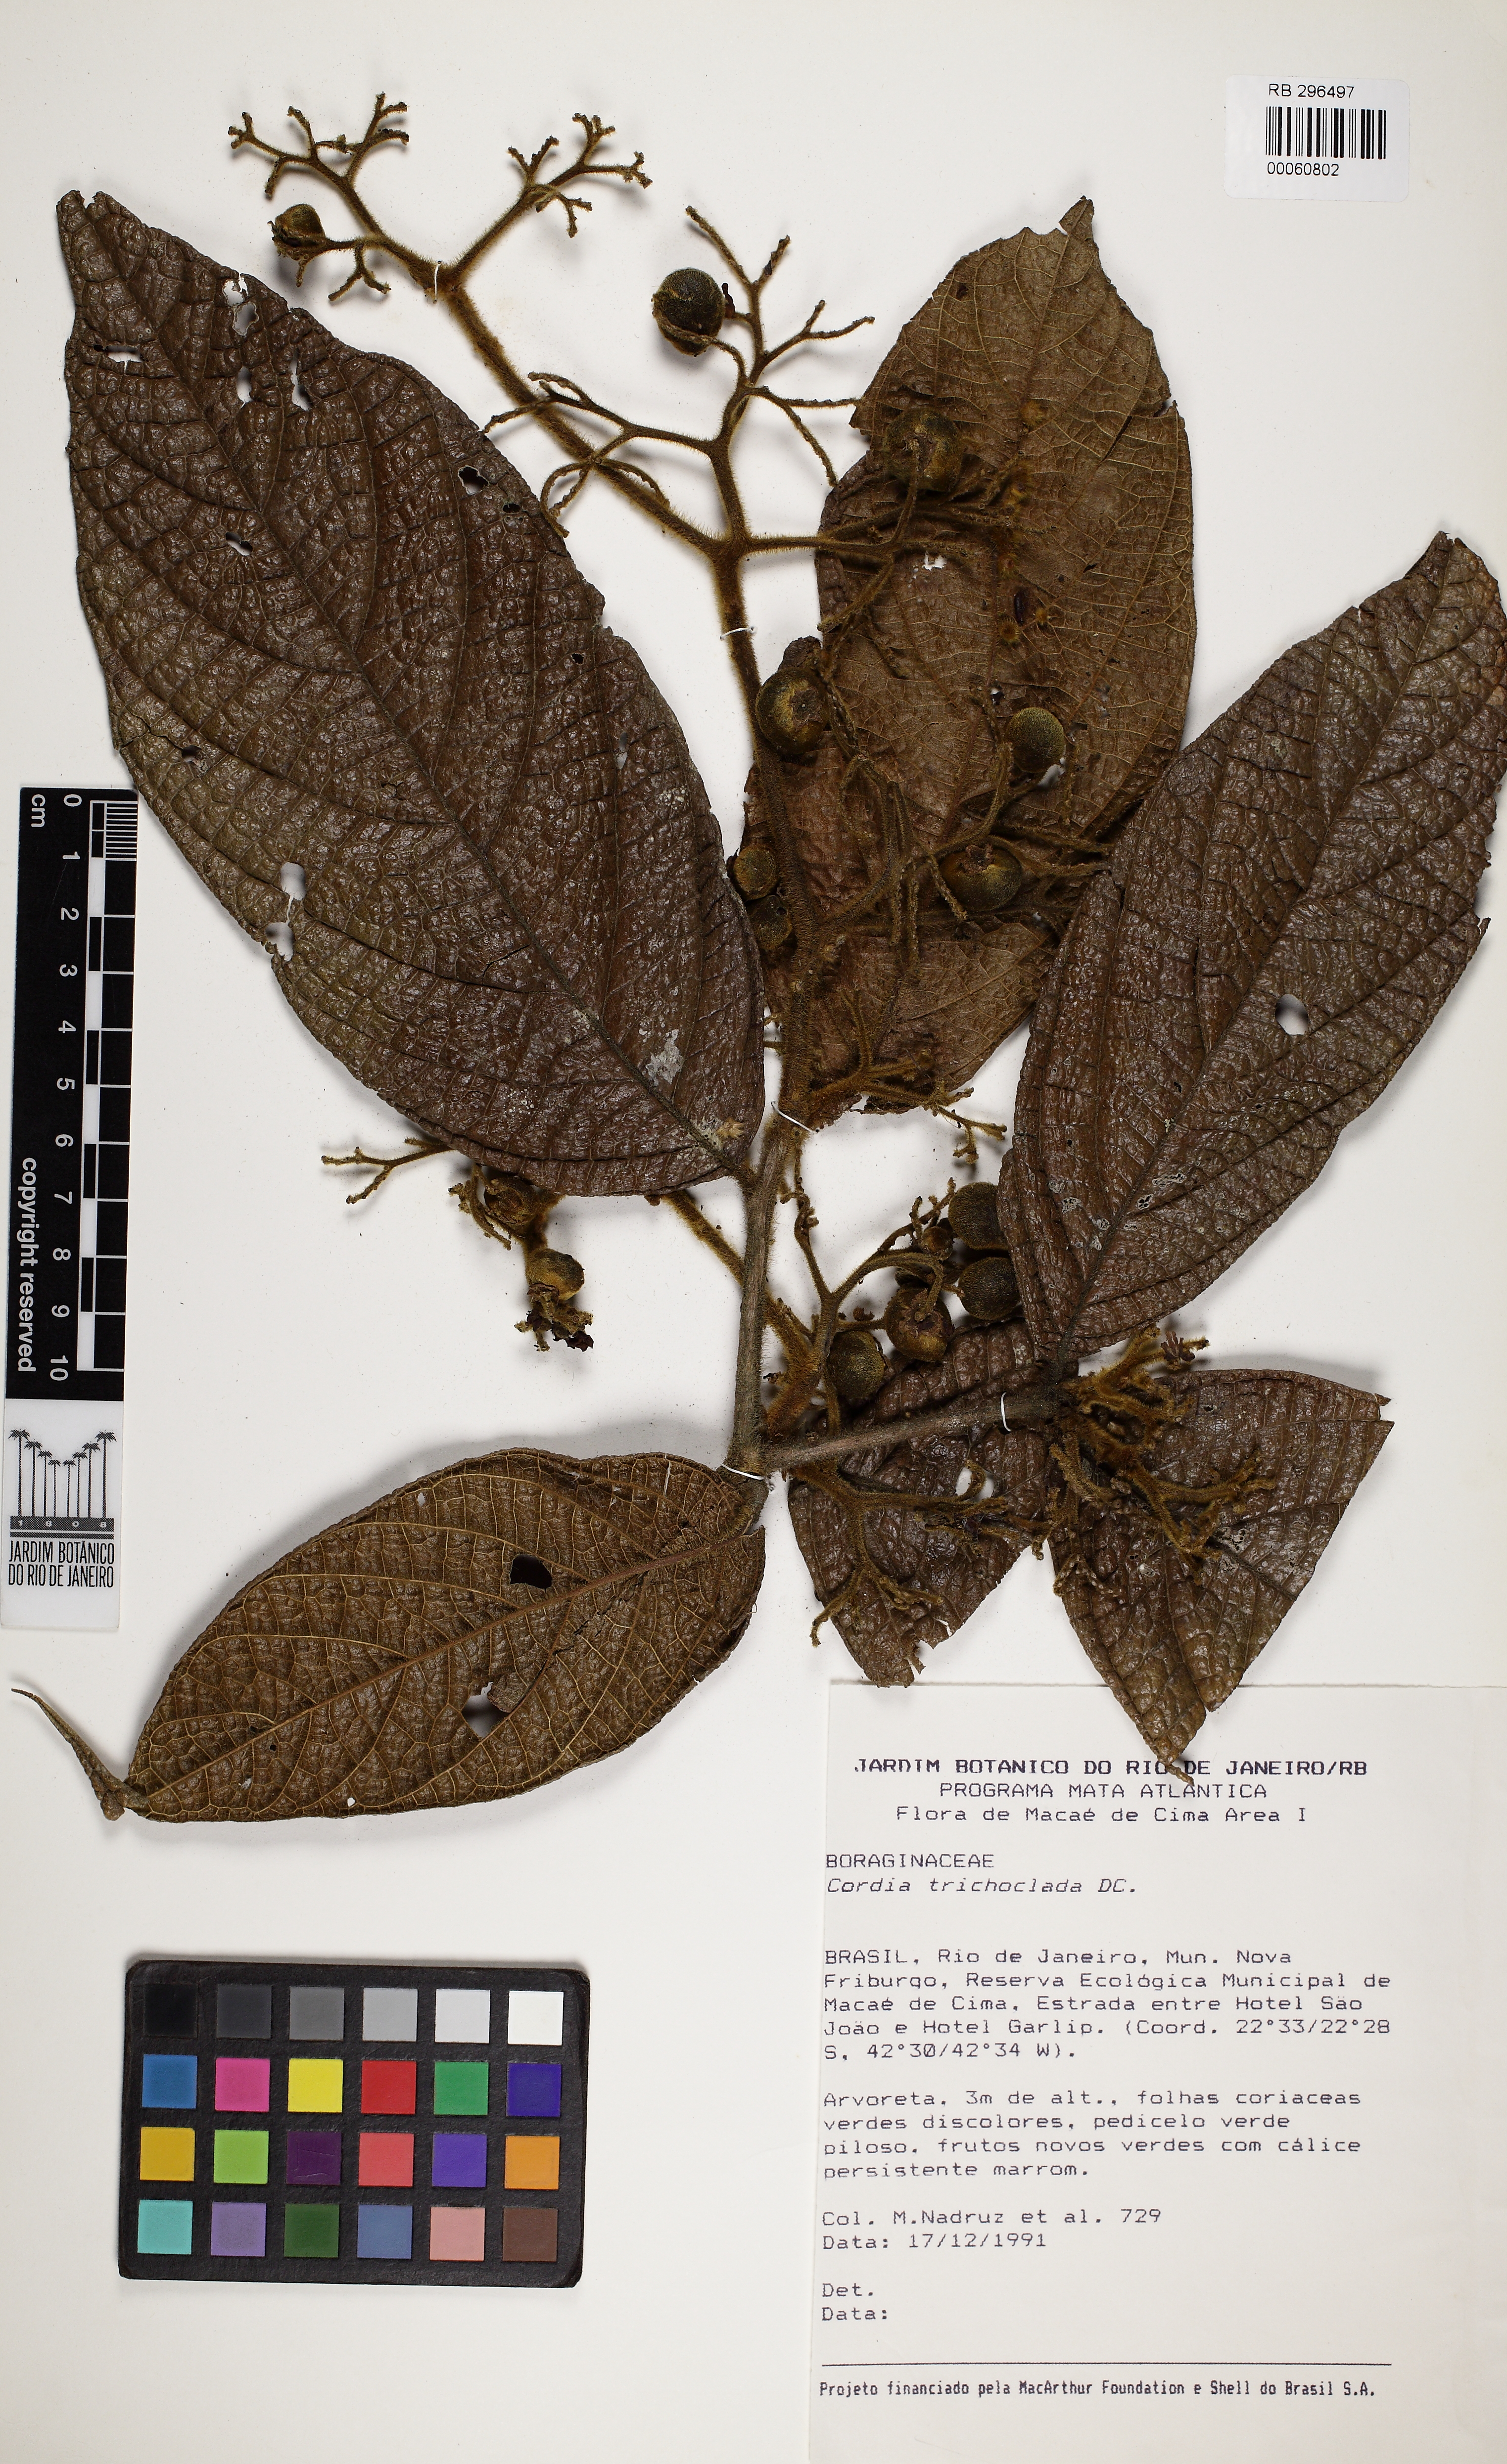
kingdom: Plantae
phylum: Tracheophyta
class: Magnoliopsida
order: Boraginales
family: Cordiaceae
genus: Cordia
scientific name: Cordia trichotoma
